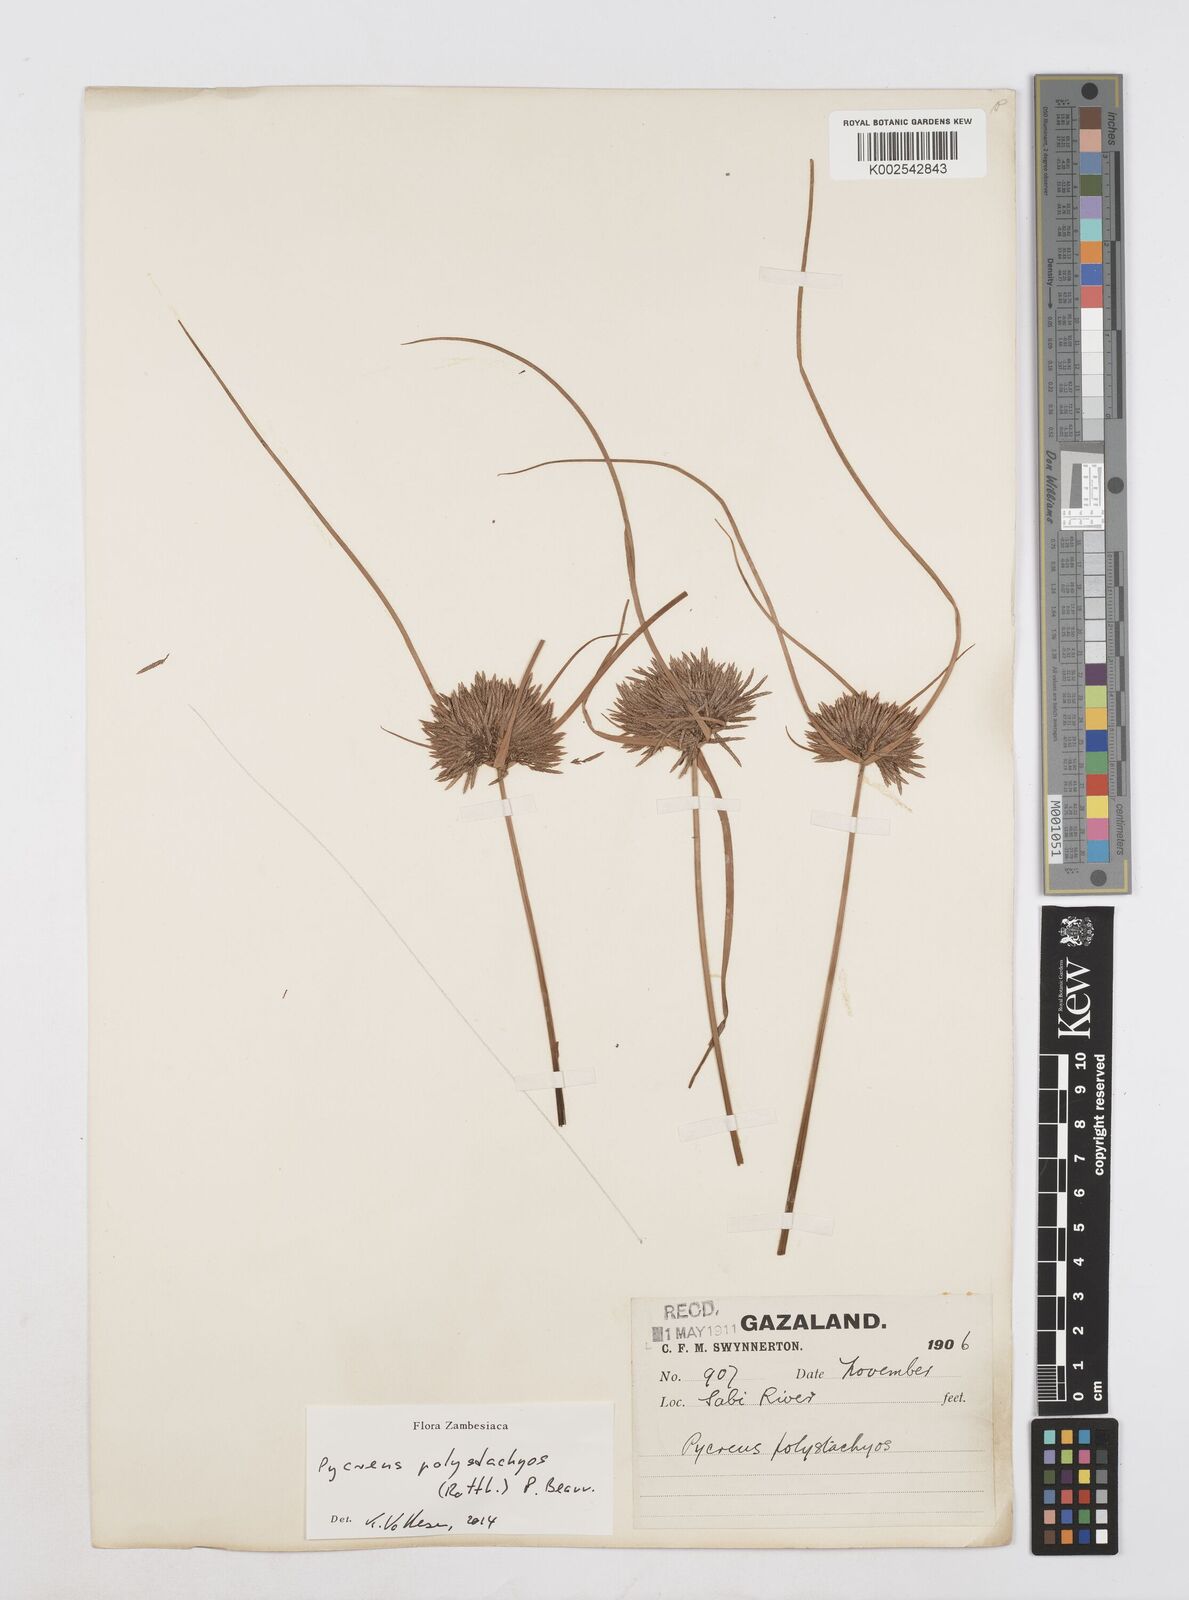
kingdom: Plantae
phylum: Tracheophyta
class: Liliopsida
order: Poales
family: Cyperaceae
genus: Cyperus
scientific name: Cyperus polystachyos
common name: Bunchy flat sedge
